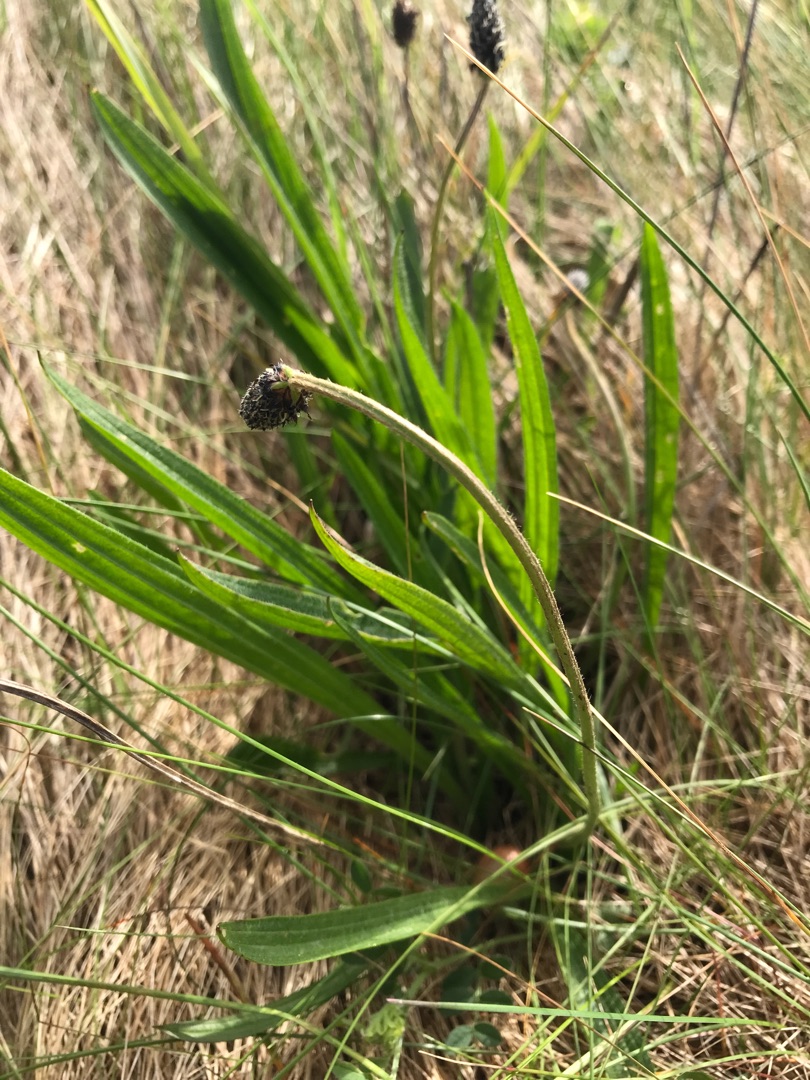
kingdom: Plantae
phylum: Tracheophyta
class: Magnoliopsida
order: Lamiales
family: Plantaginaceae
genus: Plantago
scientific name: Plantago lanceolata
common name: Lancet-vejbred
